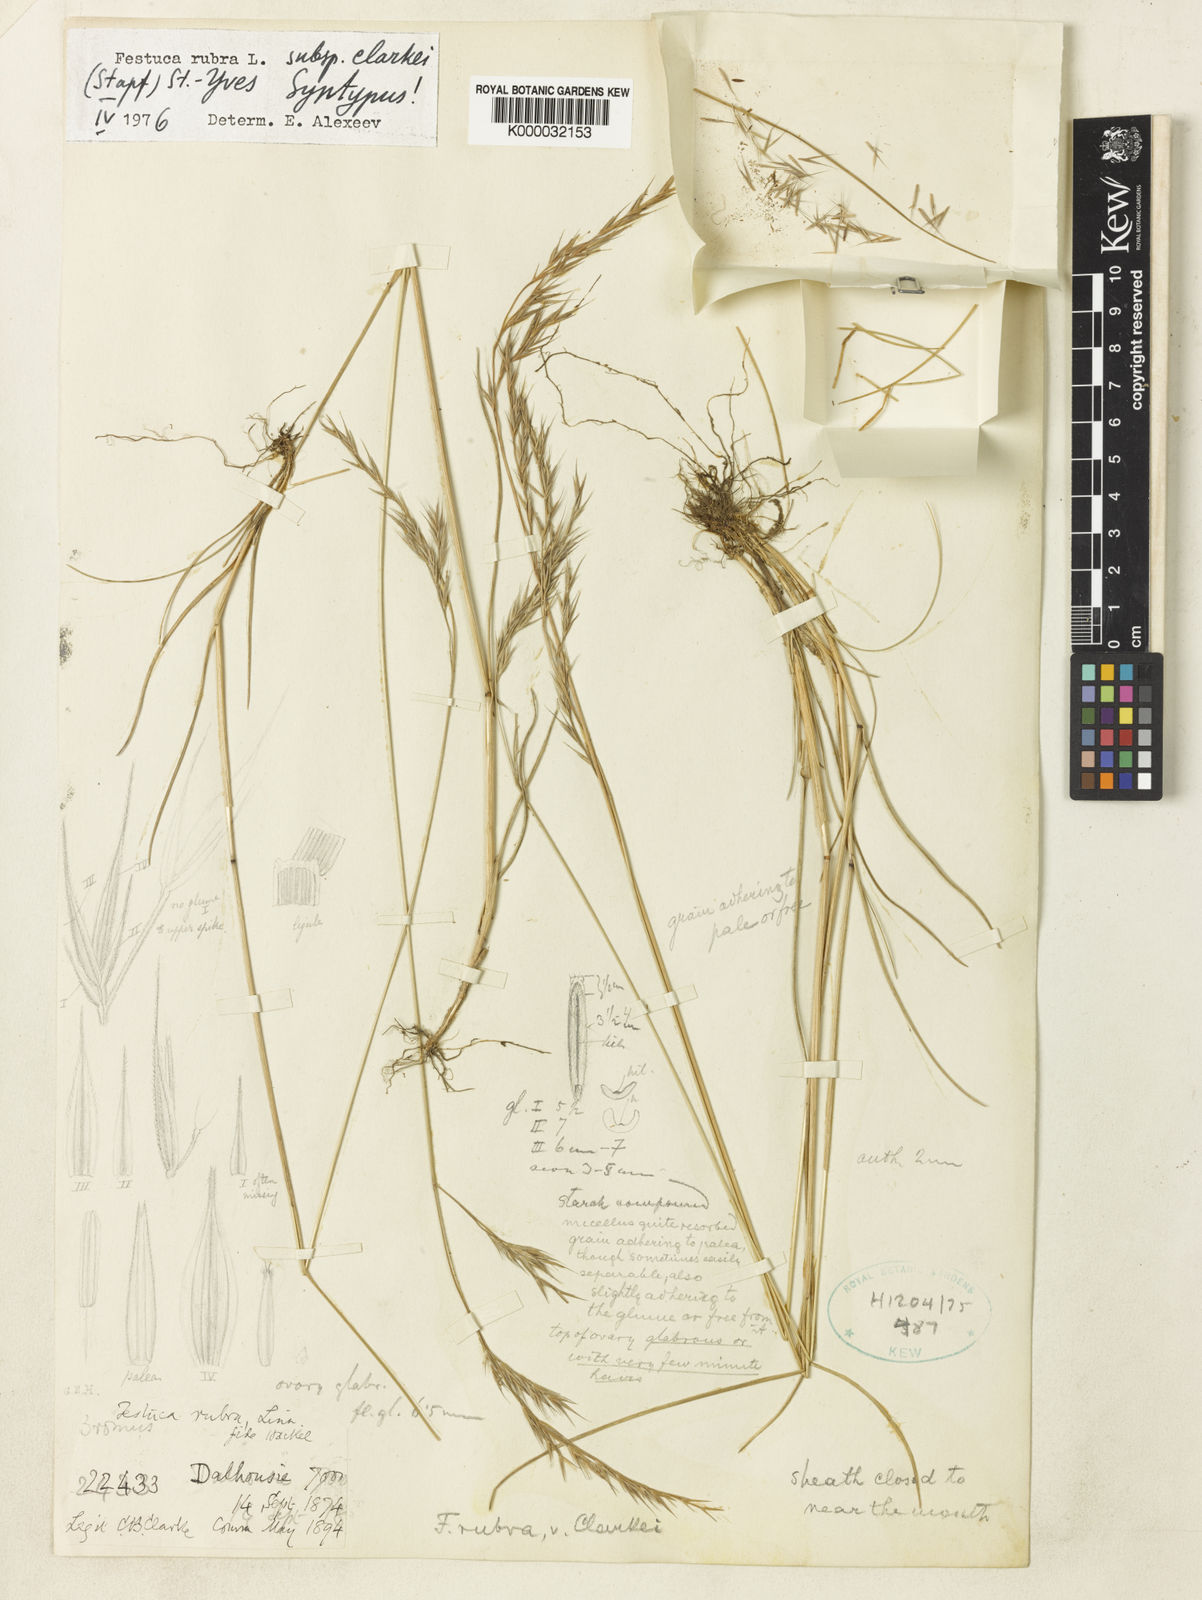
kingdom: Plantae
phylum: Tracheophyta
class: Liliopsida
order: Poales
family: Poaceae
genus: Festuca
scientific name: Festuca rubra
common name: Red fescue
